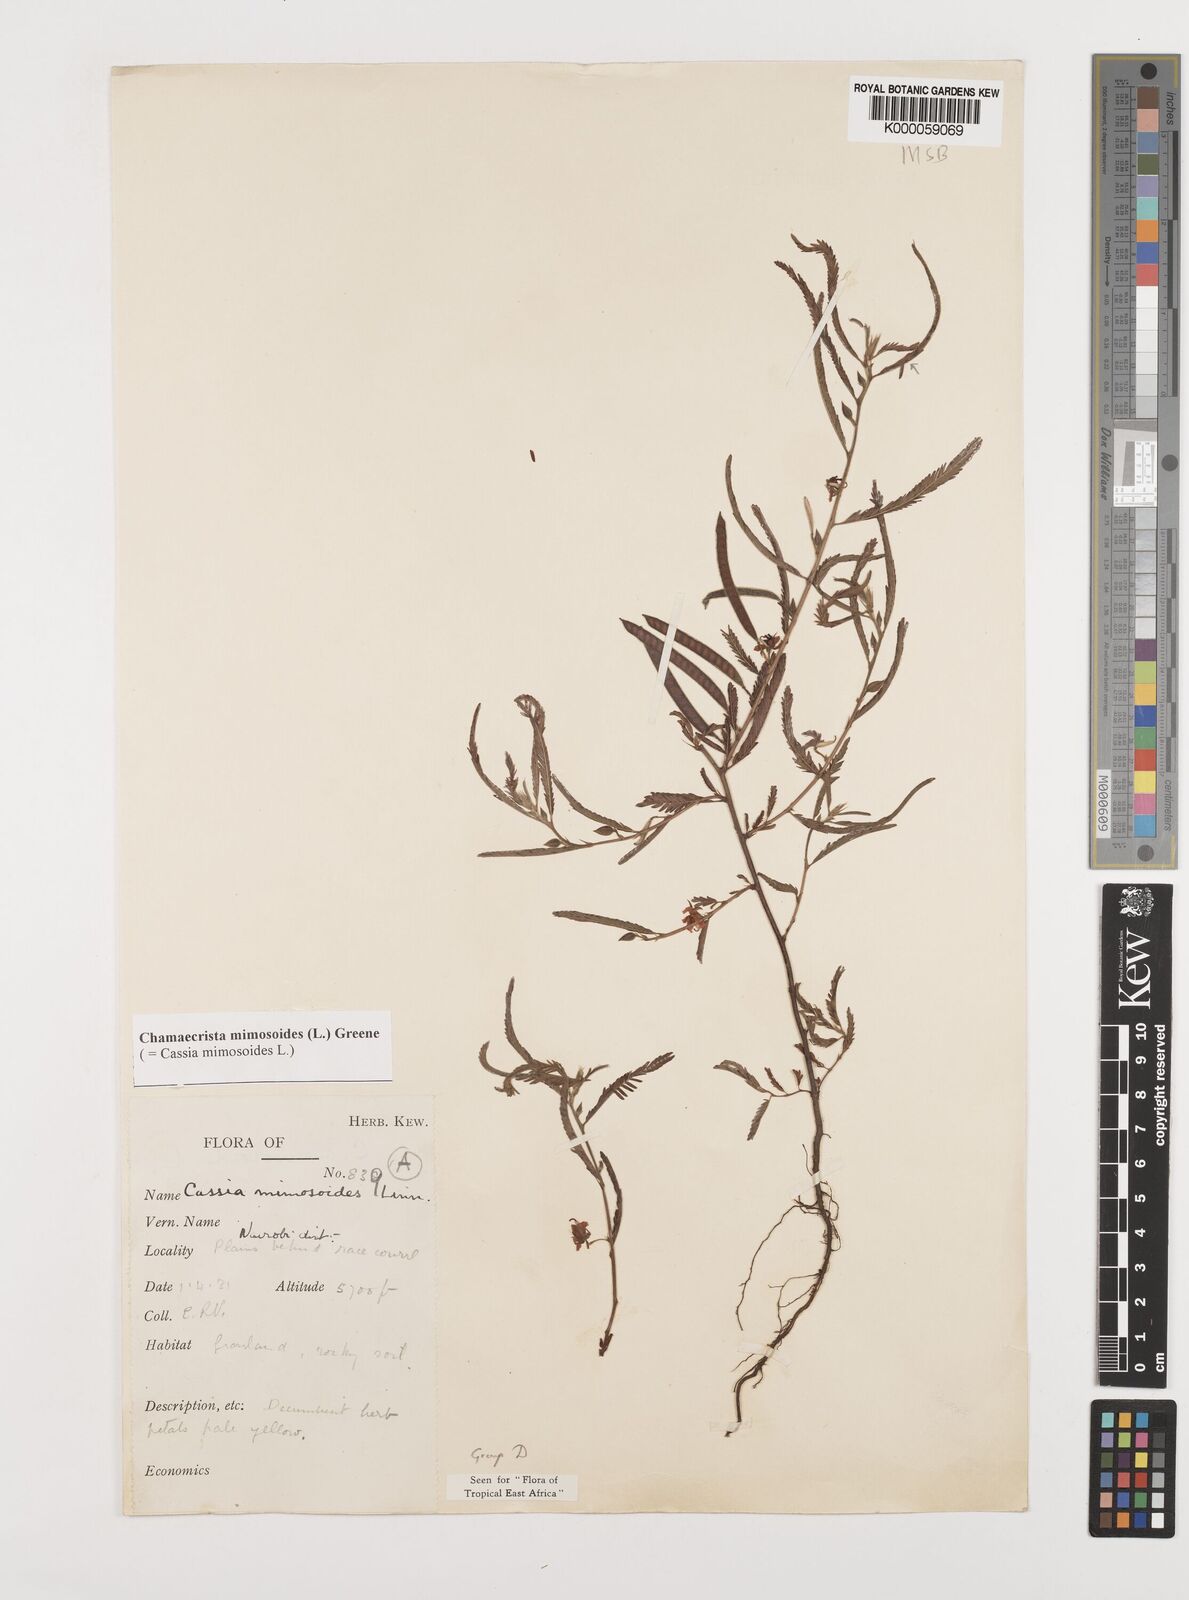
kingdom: Plantae
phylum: Tracheophyta
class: Magnoliopsida
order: Fabales
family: Fabaceae
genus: Chamaecrista
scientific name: Chamaecrista mimosoides
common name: Fish-bone cassia
